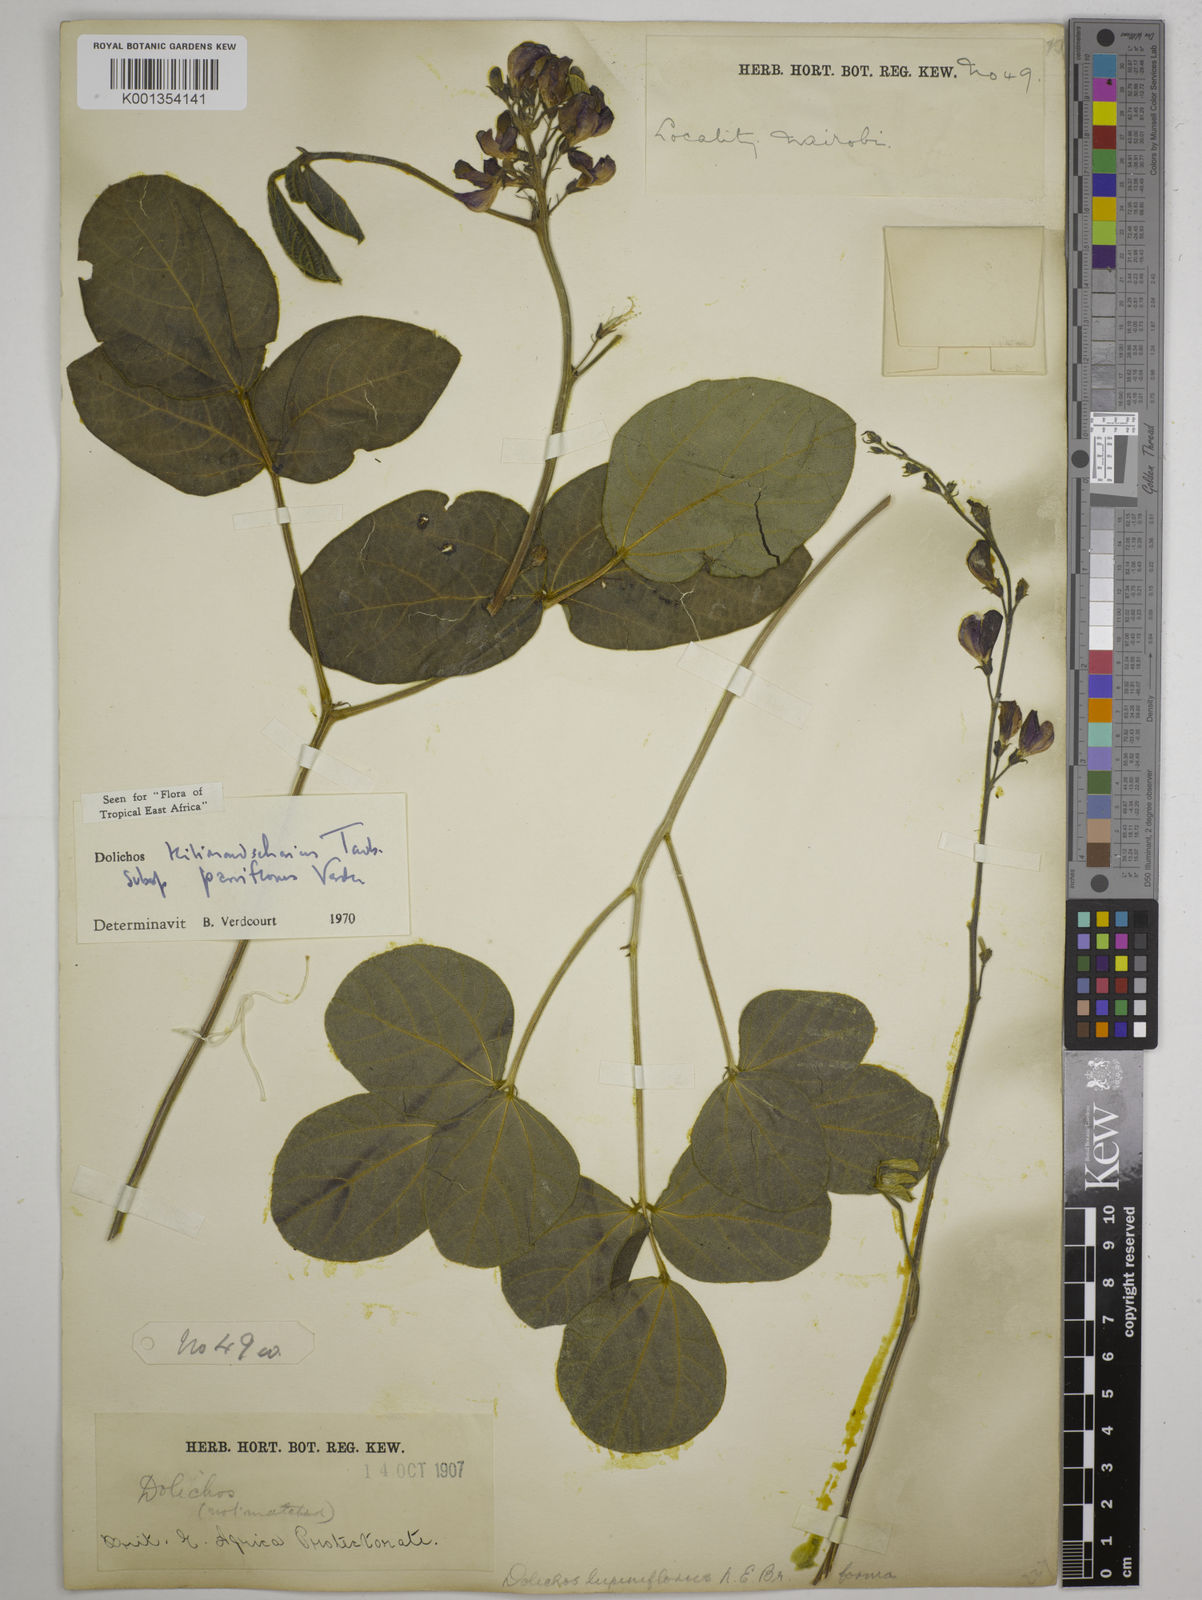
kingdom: Plantae
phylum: Tracheophyta
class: Magnoliopsida
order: Fabales
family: Fabaceae
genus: Dolichos
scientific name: Dolichos
